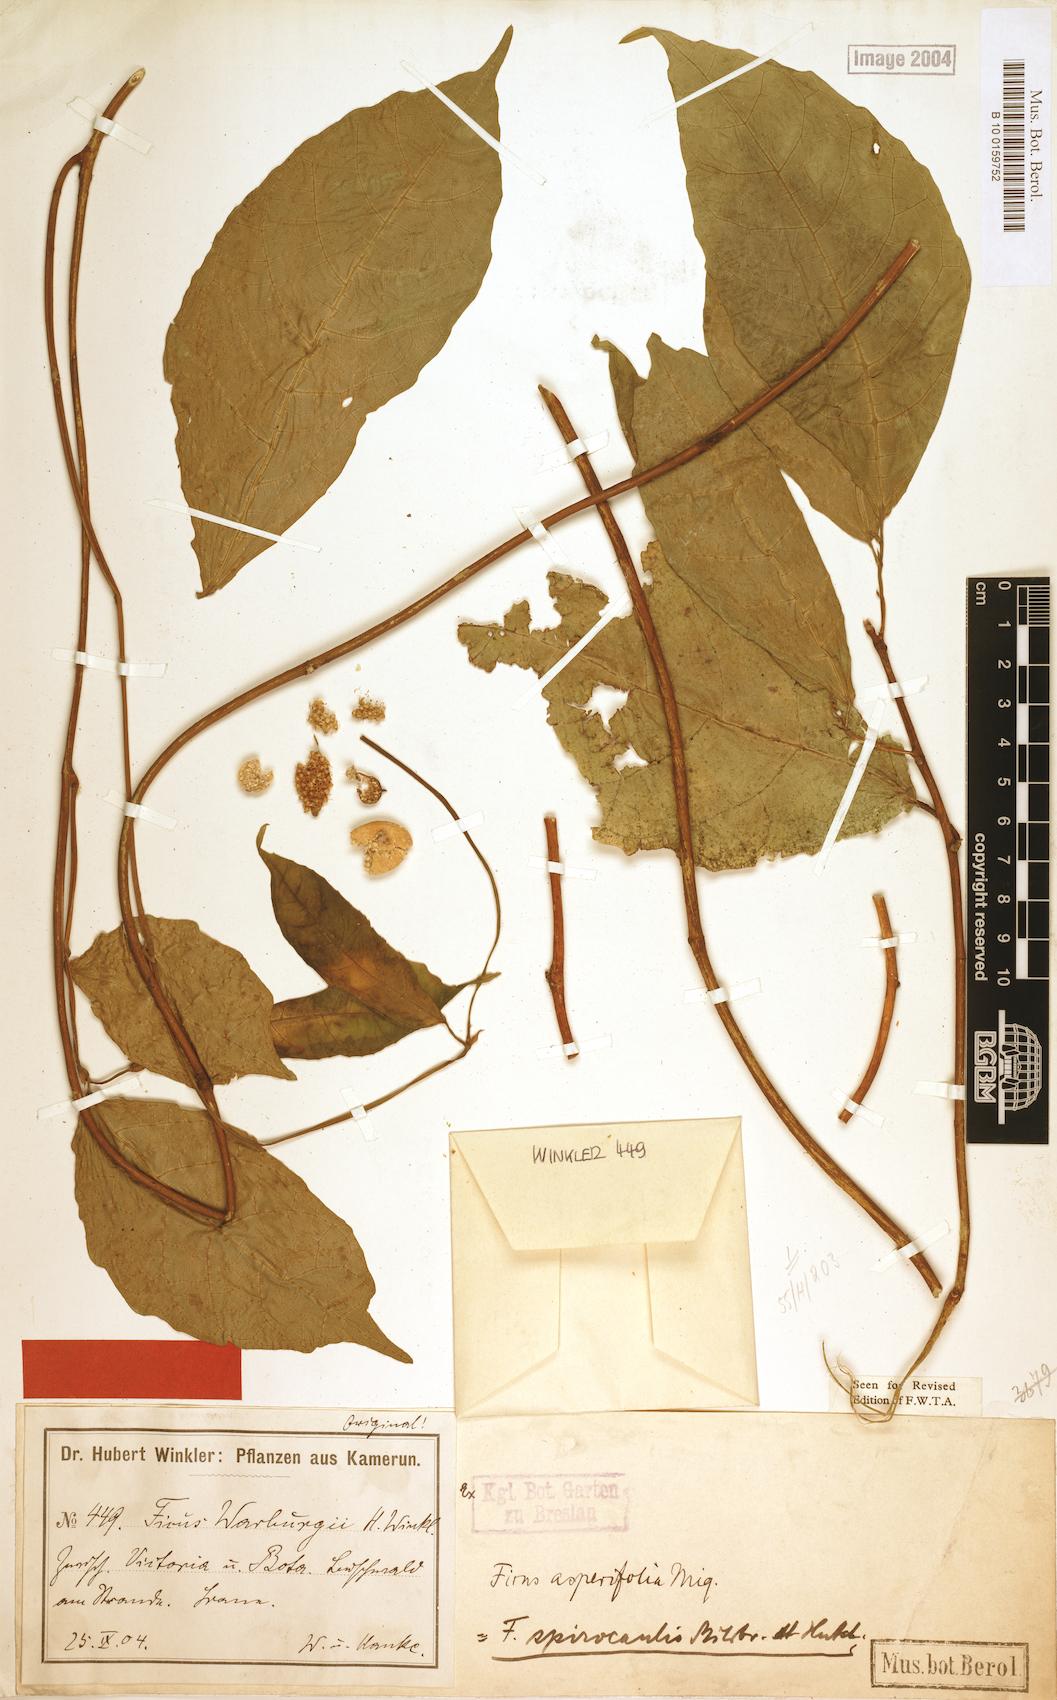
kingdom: Plantae
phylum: Tracheophyta
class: Magnoliopsida
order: Rosales
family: Moraceae
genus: Ficus
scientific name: Ficus asperifolia
